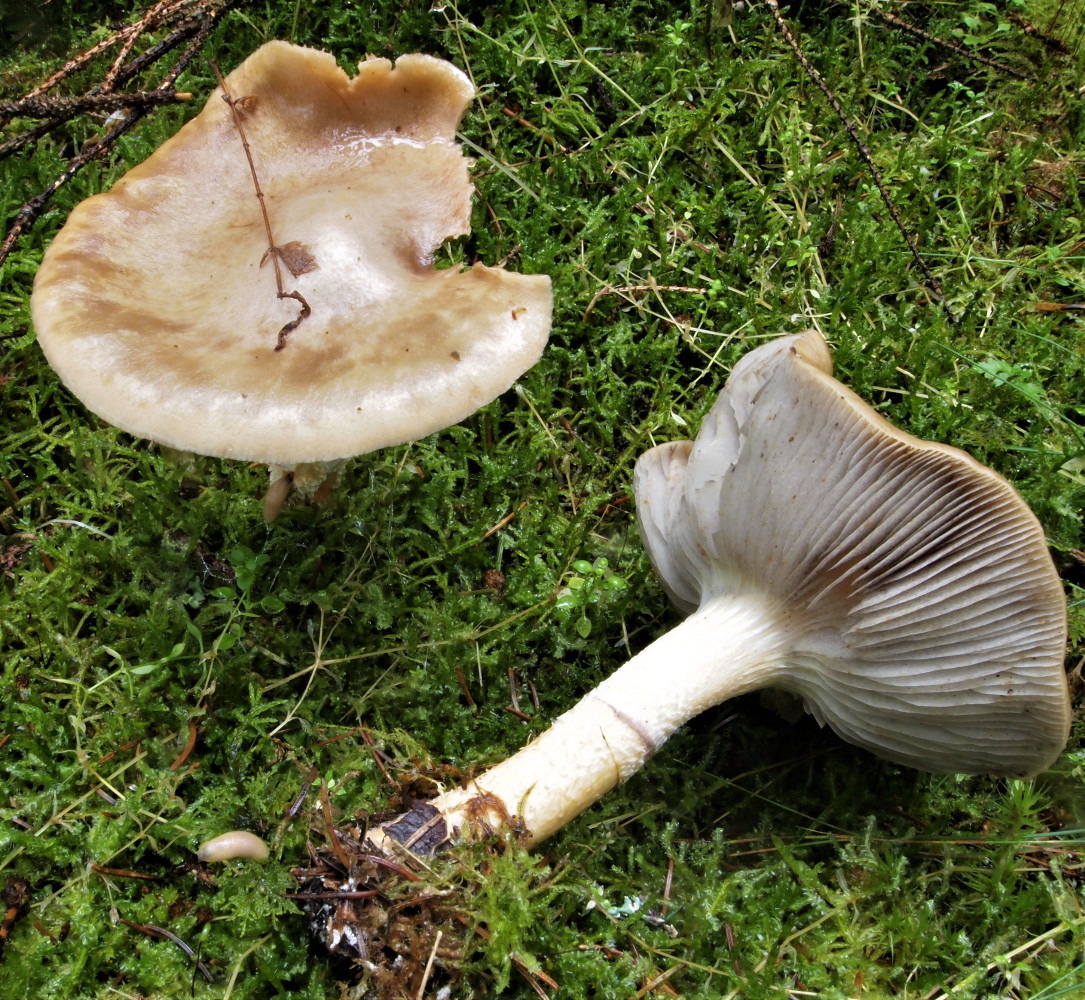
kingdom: Fungi
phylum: Basidiomycota
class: Agaricomycetes
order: Agaricales
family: Strophariaceae
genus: Stropharia
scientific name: Stropharia hornemannii
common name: nordisk bredblad
